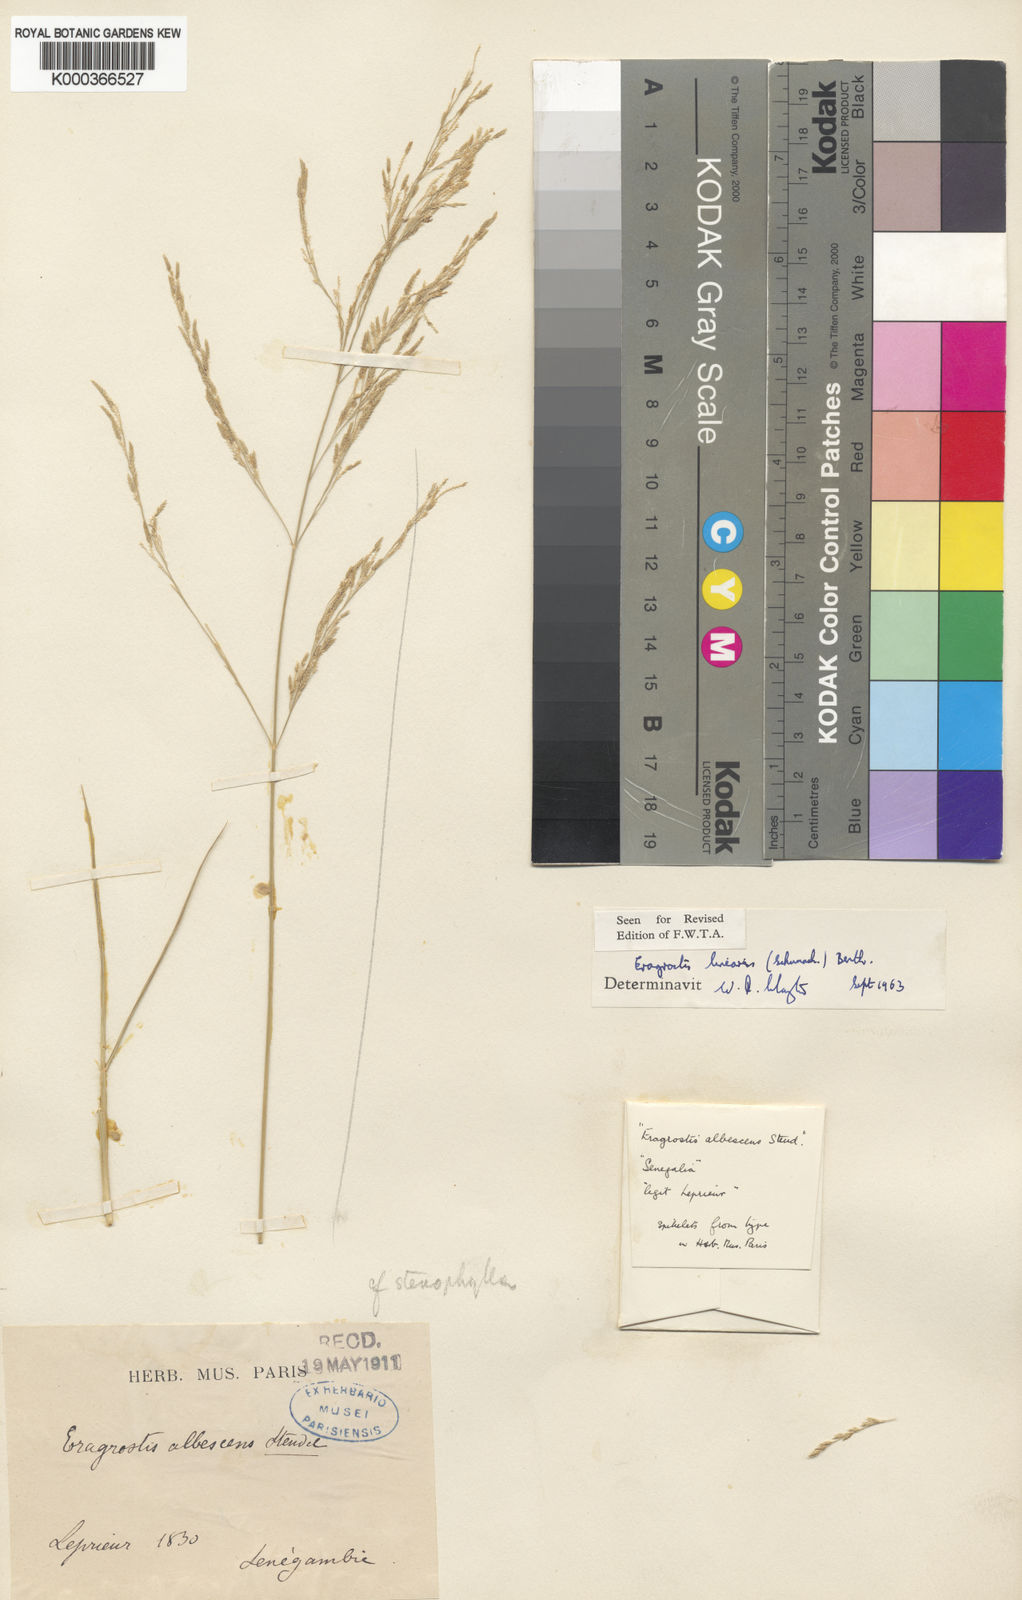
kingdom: Plantae
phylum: Tracheophyta
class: Liliopsida
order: Poales
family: Poaceae
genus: Eragrostis
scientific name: Eragrostis prolifera
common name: Dominican lovegrass
